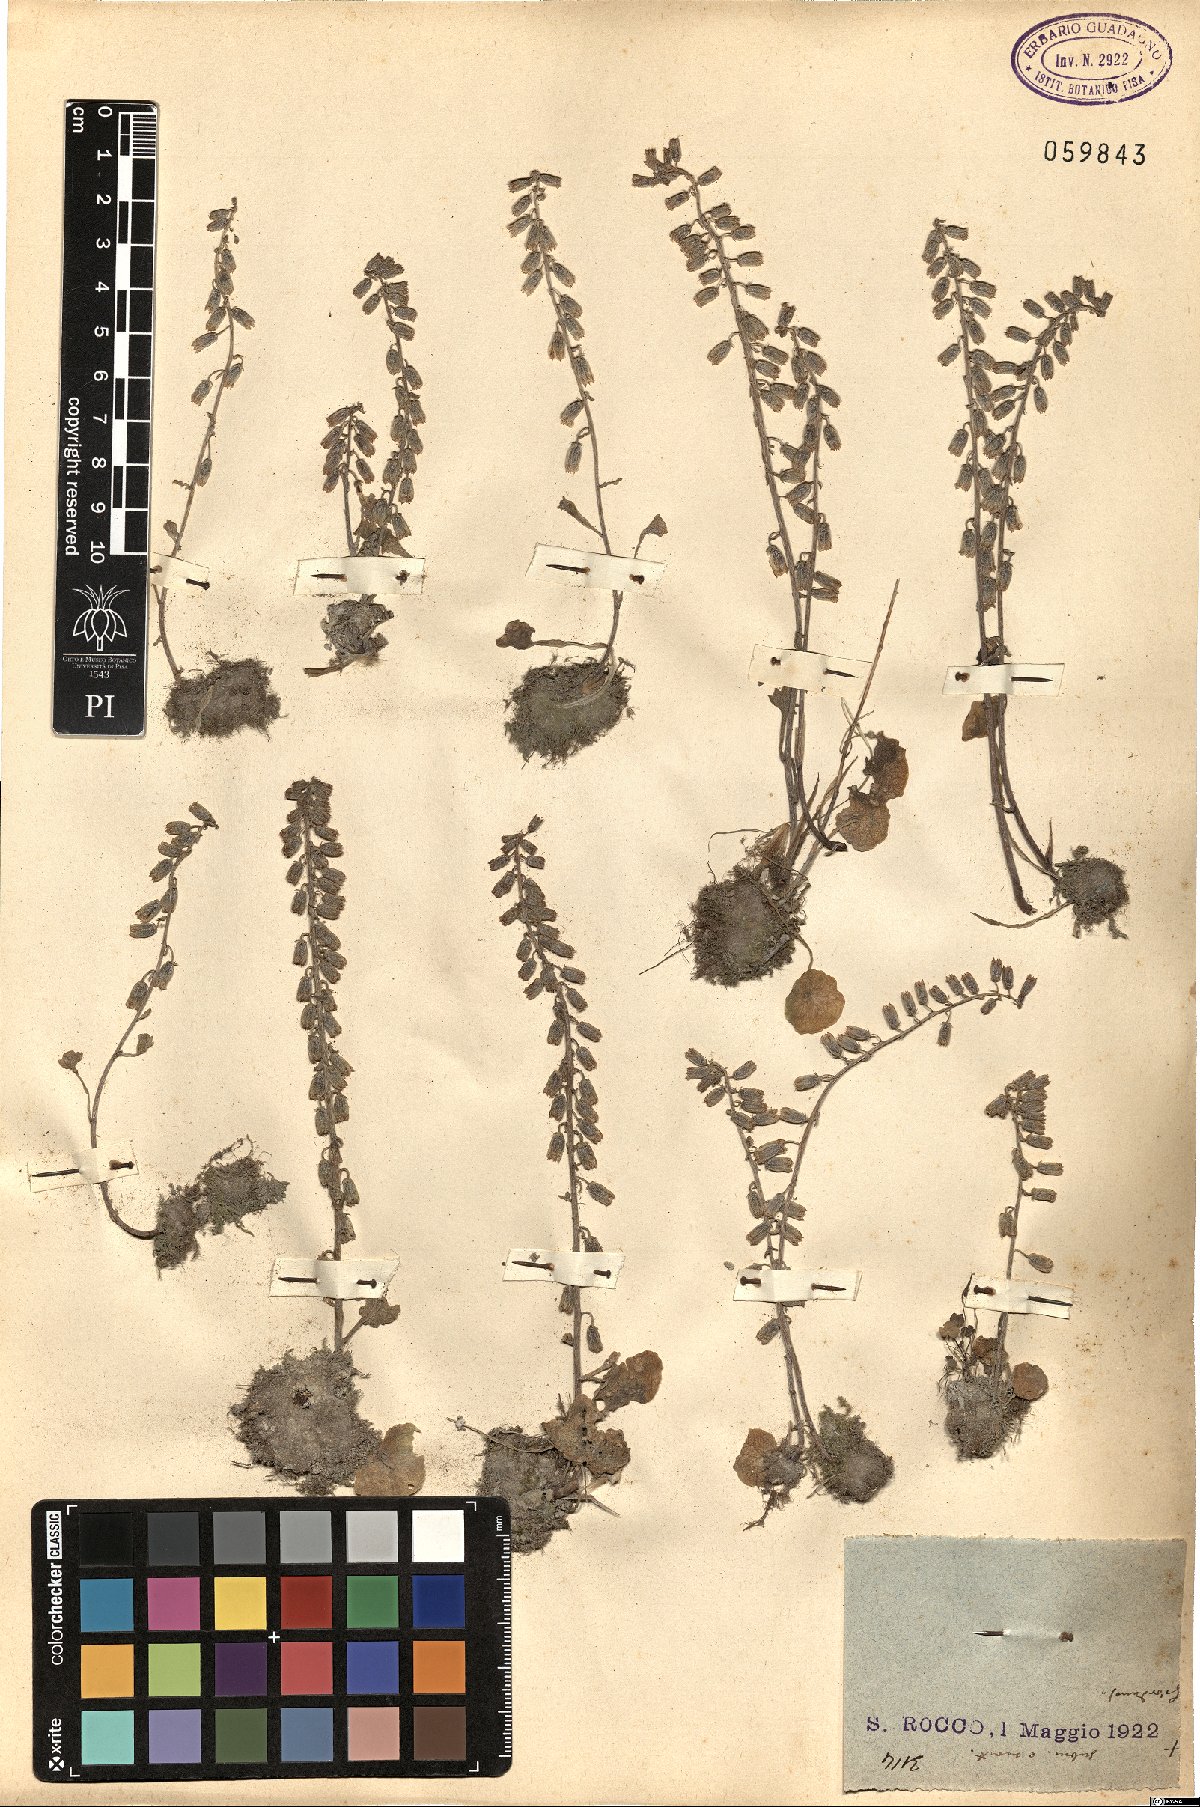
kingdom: Plantae
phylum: Tracheophyta
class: Magnoliopsida
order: Saxifragales
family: Crassulaceae
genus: Umbilicus
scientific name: Umbilicus rupestris
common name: Navelwort
